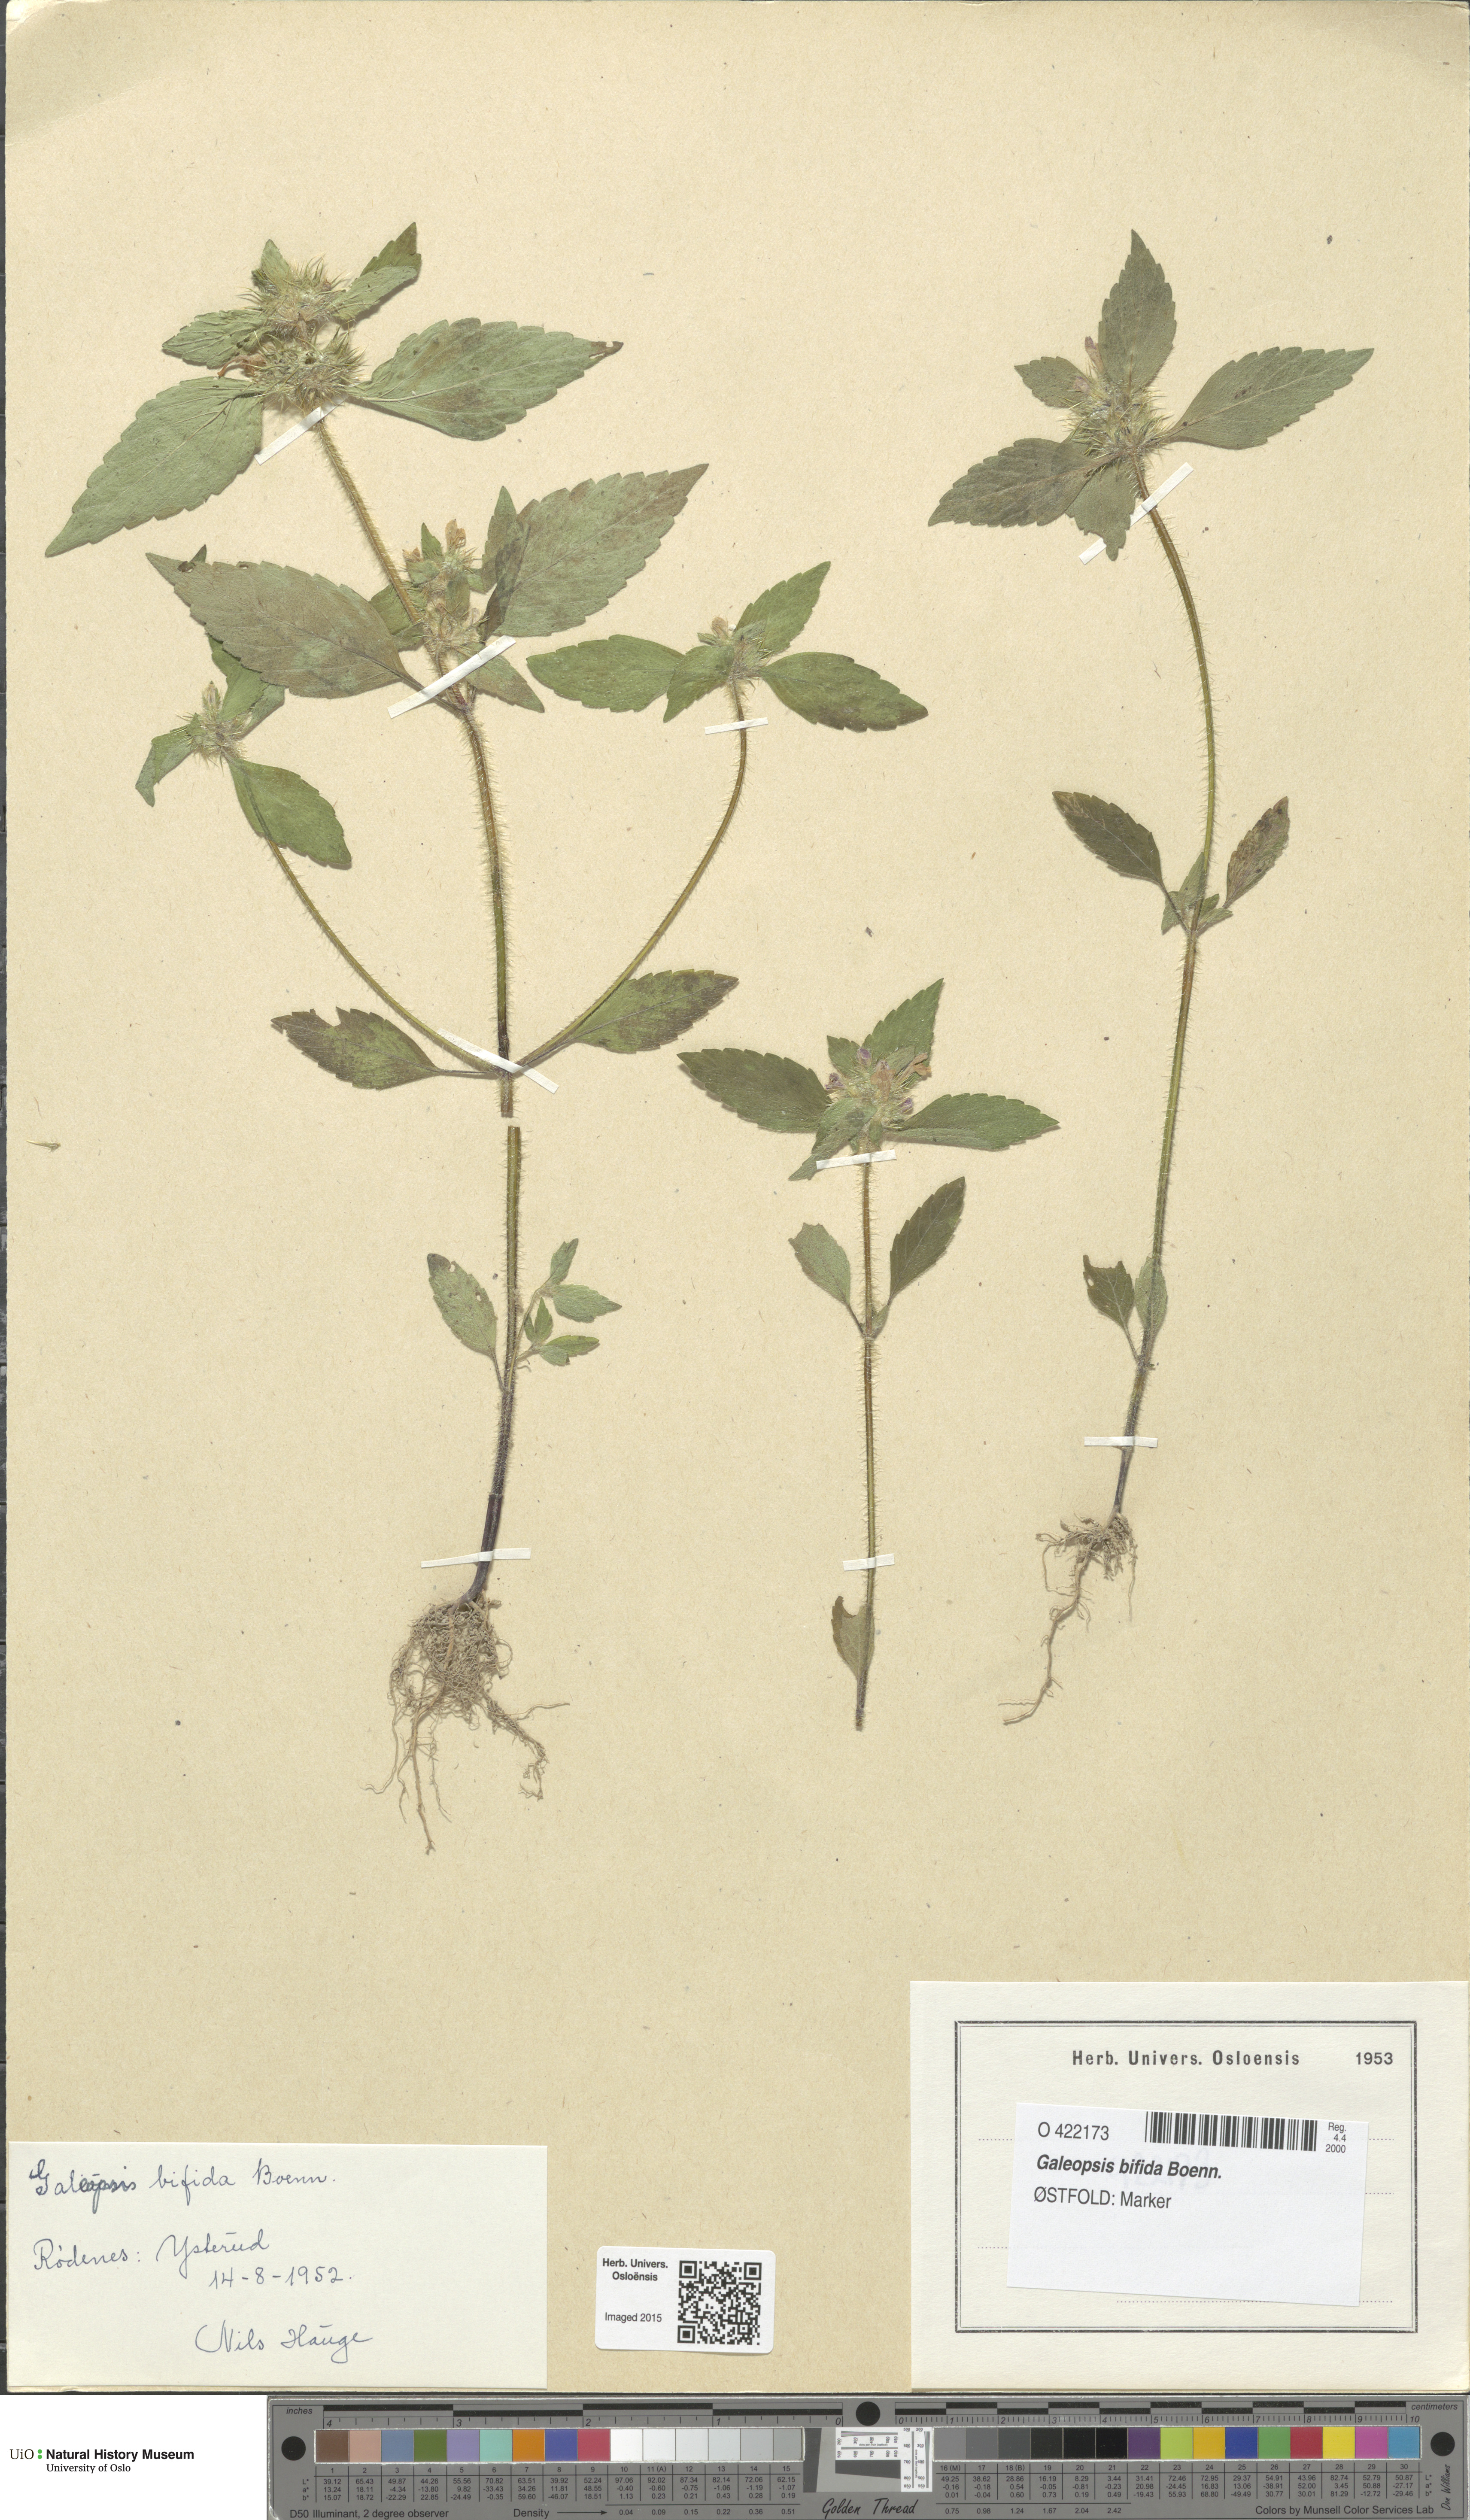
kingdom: Plantae
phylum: Tracheophyta
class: Magnoliopsida
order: Lamiales
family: Lamiaceae
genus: Galeopsis
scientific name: Galeopsis bifida
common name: Bifid hemp-nettle
